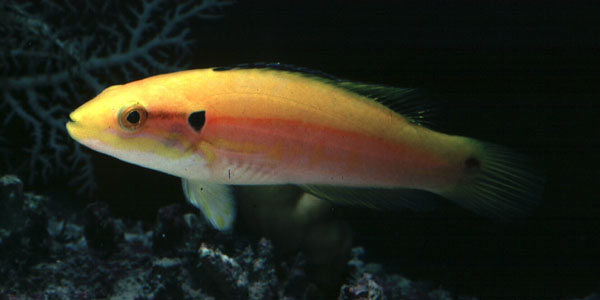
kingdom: Animalia
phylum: Chordata
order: Perciformes
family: Labridae
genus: Bodianus
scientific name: Bodianus bimaculatus
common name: Two-spot slender hogfish
